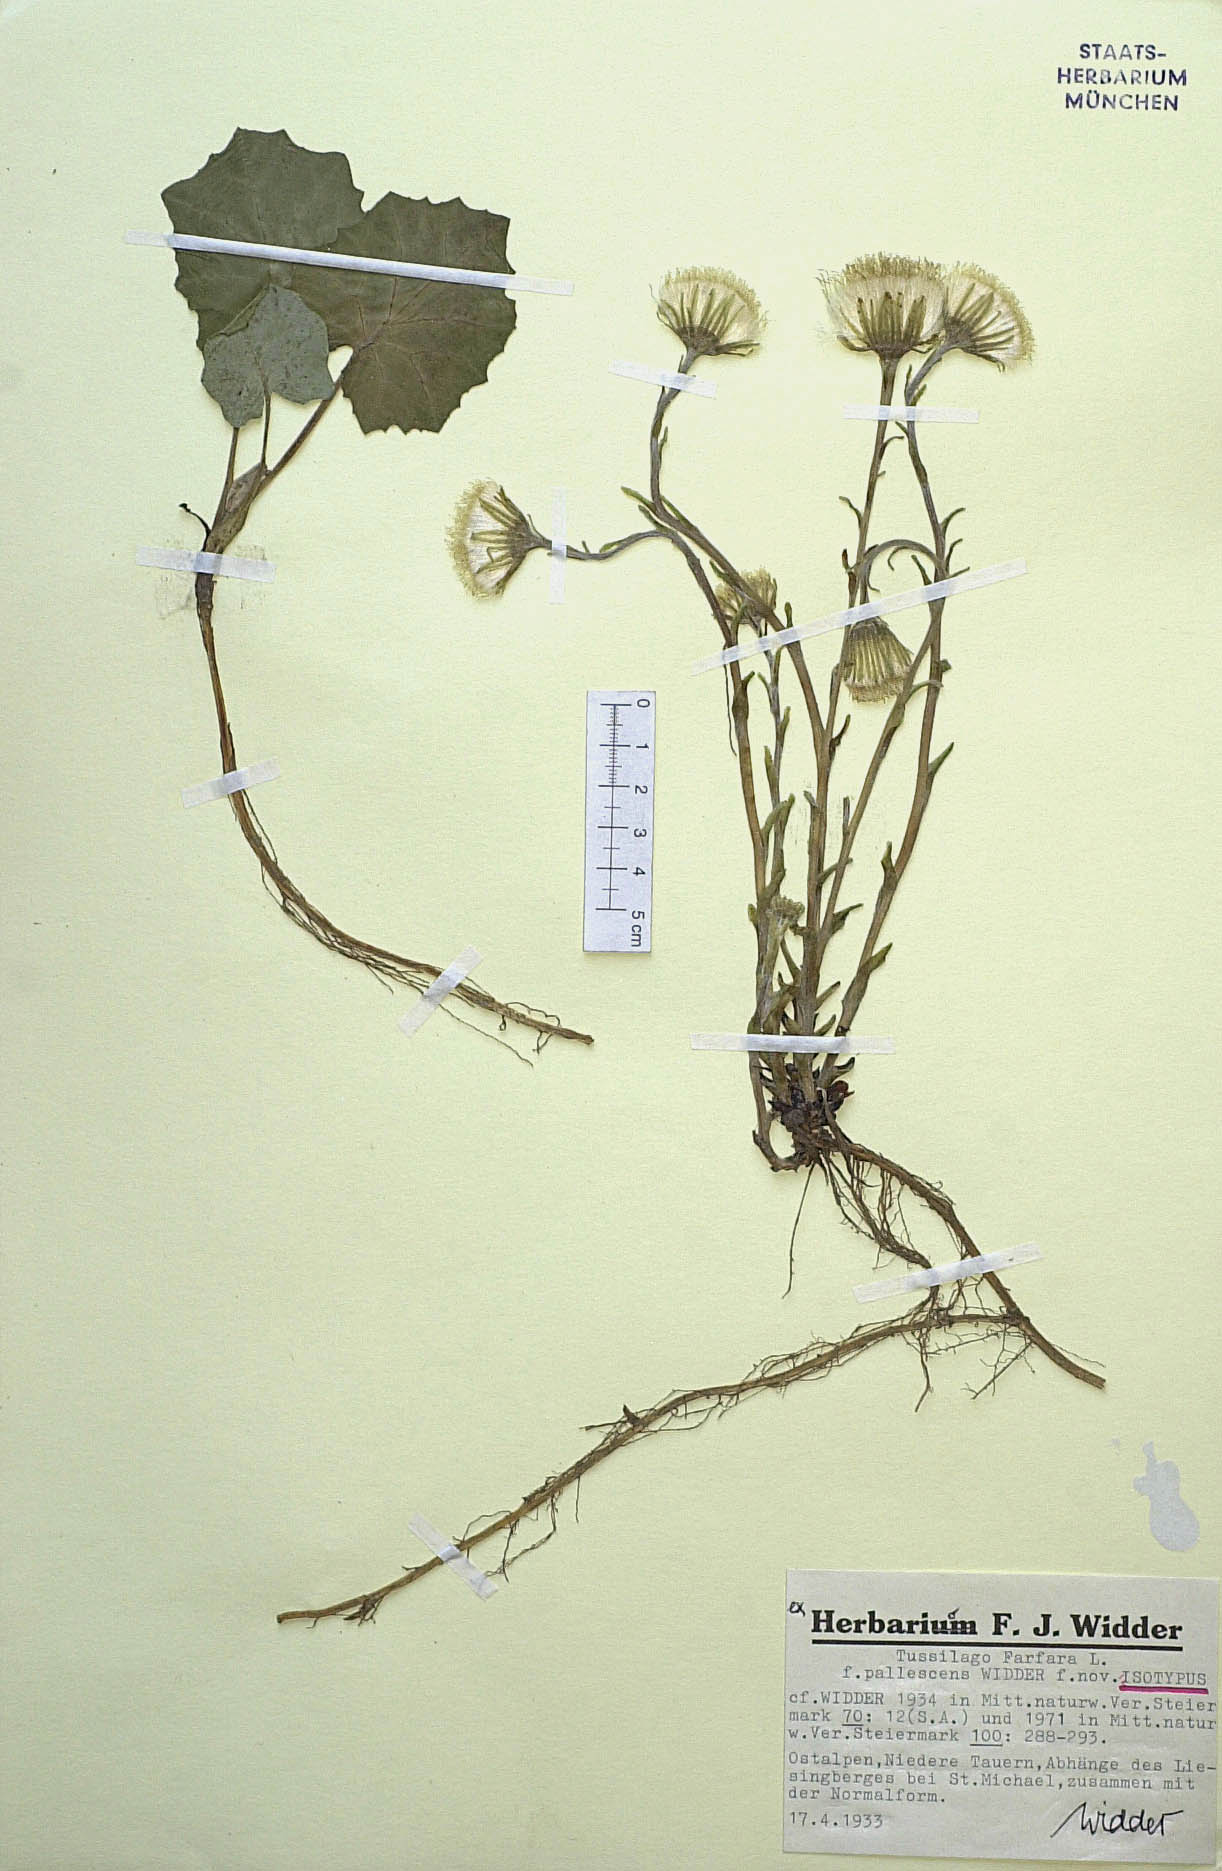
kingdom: Plantae
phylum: Tracheophyta
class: Magnoliopsida
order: Asterales
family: Asteraceae
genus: Tussilago
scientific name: Tussilago farfara
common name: Coltsfoot
